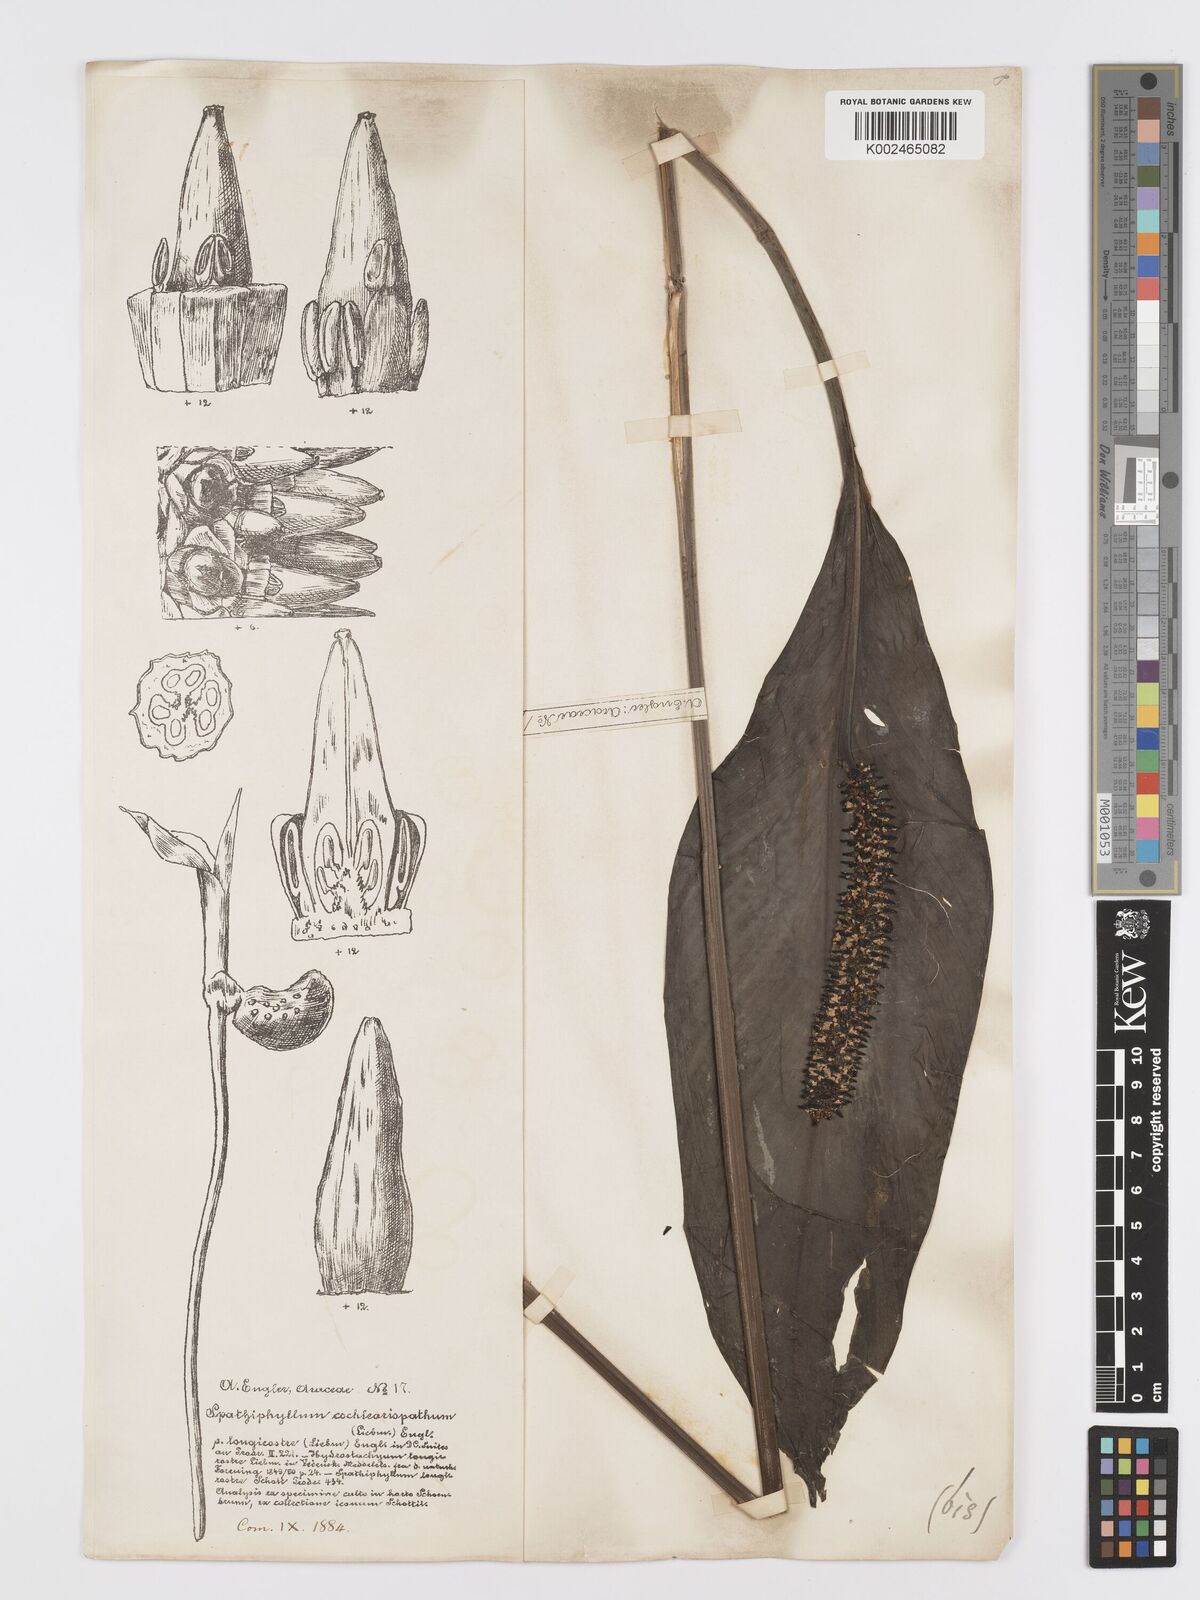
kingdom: Plantae
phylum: Tracheophyta
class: Liliopsida
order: Alismatales
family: Araceae
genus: Spathiphyllum
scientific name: Spathiphyllum cochlearispathum
